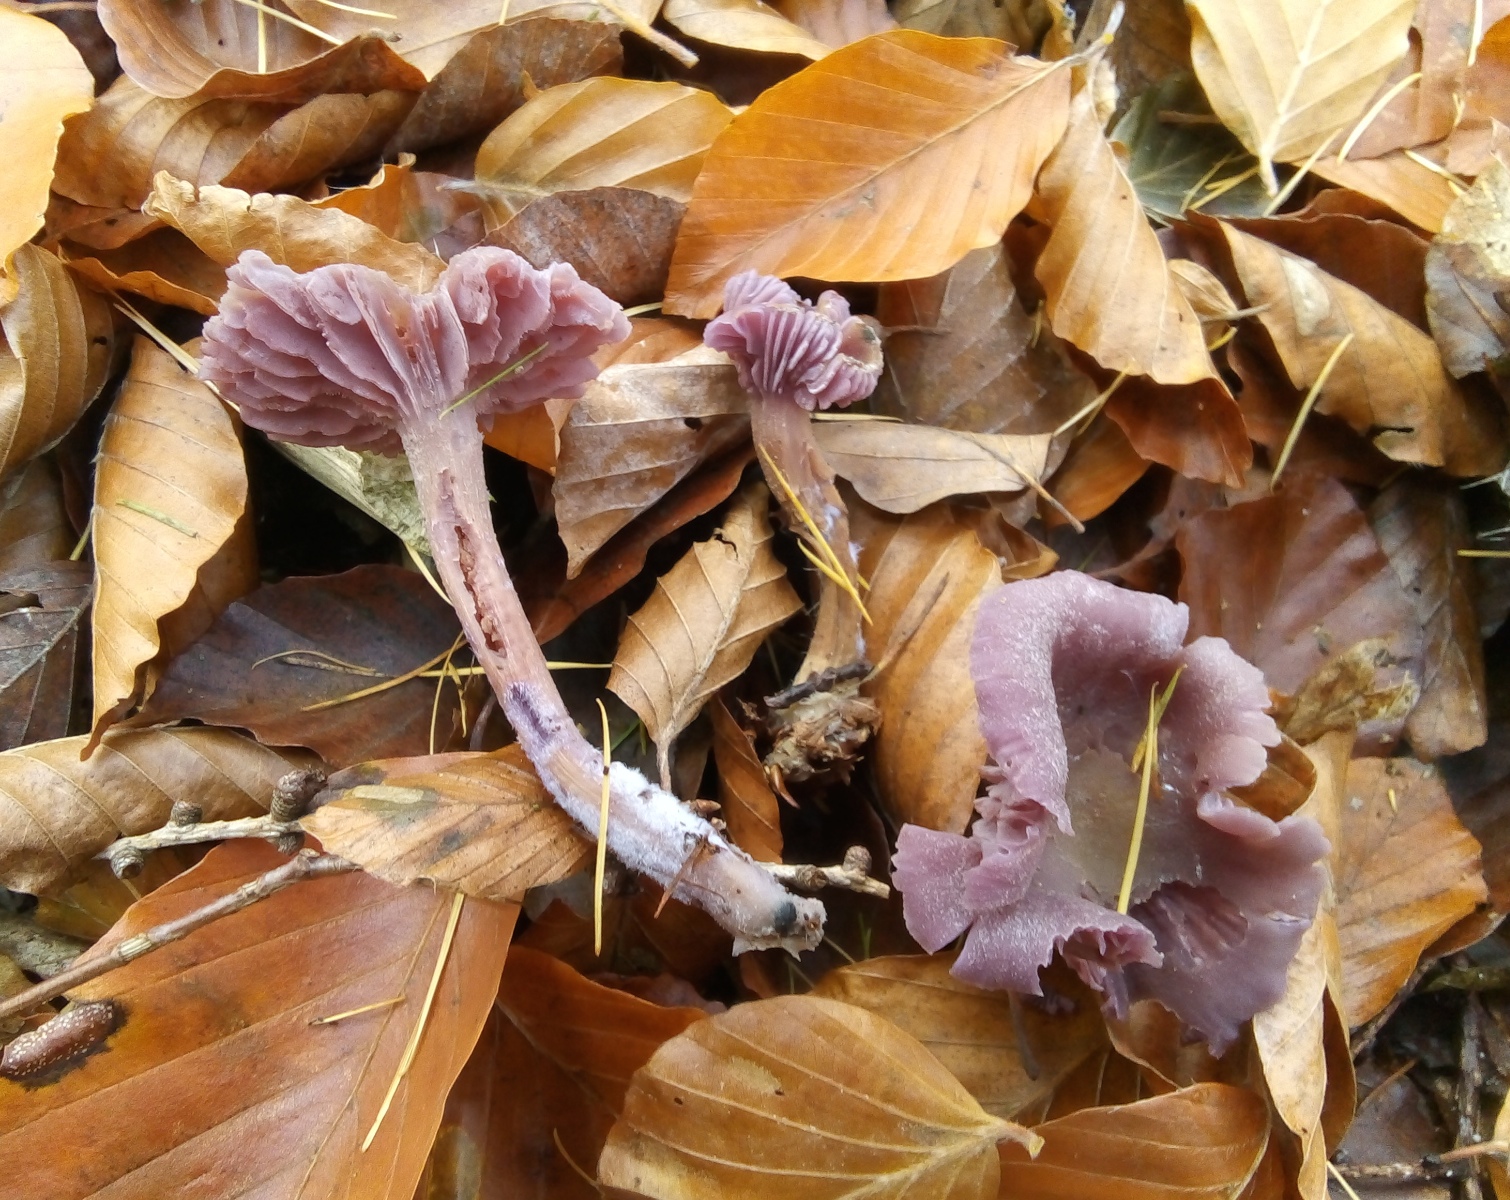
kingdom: Fungi
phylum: Basidiomycota
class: Agaricomycetes
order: Agaricales
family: Hydnangiaceae
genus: Laccaria
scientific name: Laccaria amethystina
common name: violet ametysthat
